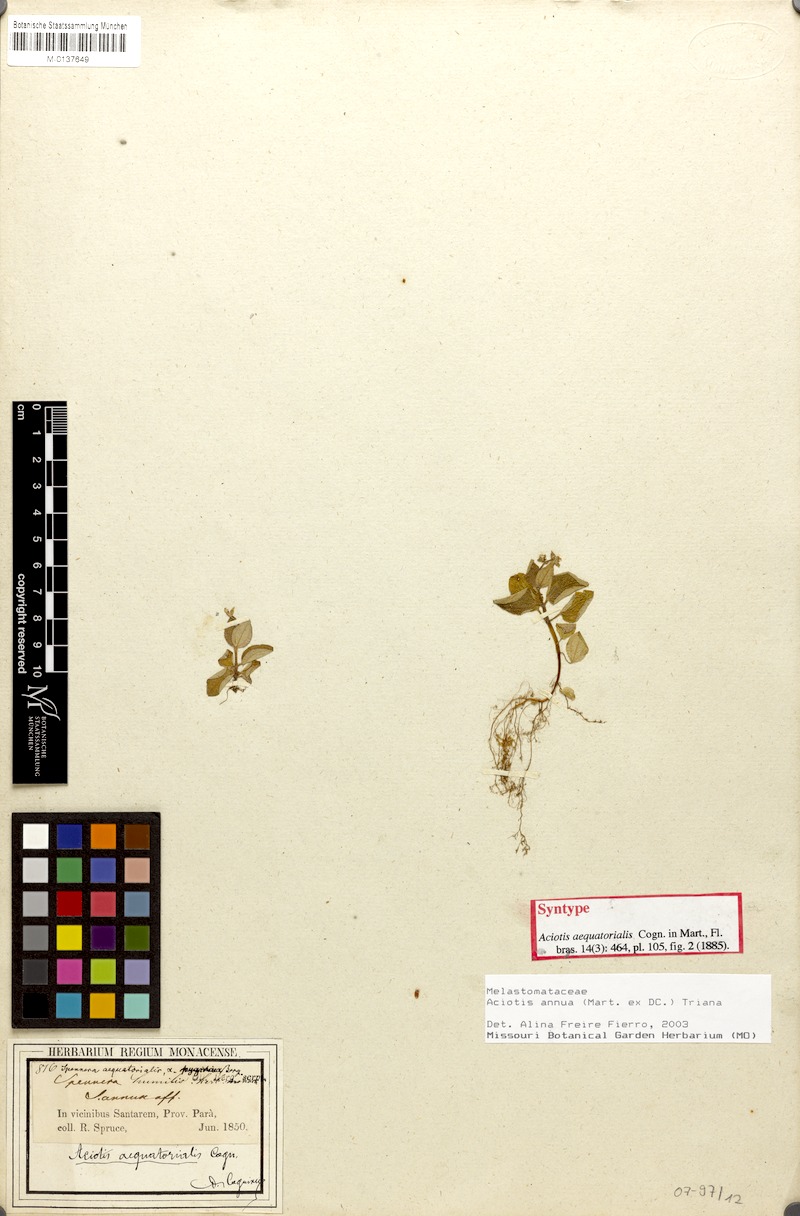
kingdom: Plantae
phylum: Tracheophyta
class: Magnoliopsida
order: Myrtales
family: Melastomataceae
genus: Aciotis
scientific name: Aciotis annua
